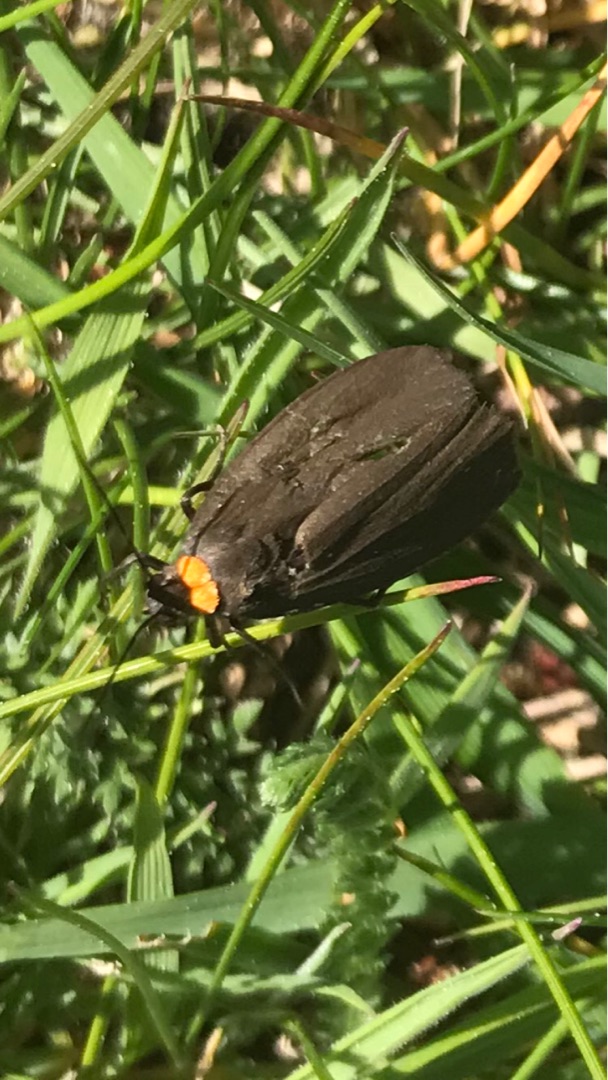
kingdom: Animalia
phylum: Arthropoda
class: Insecta
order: Lepidoptera
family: Erebidae
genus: Atolmis
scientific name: Atolmis rubricollis
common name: Blodnakke
